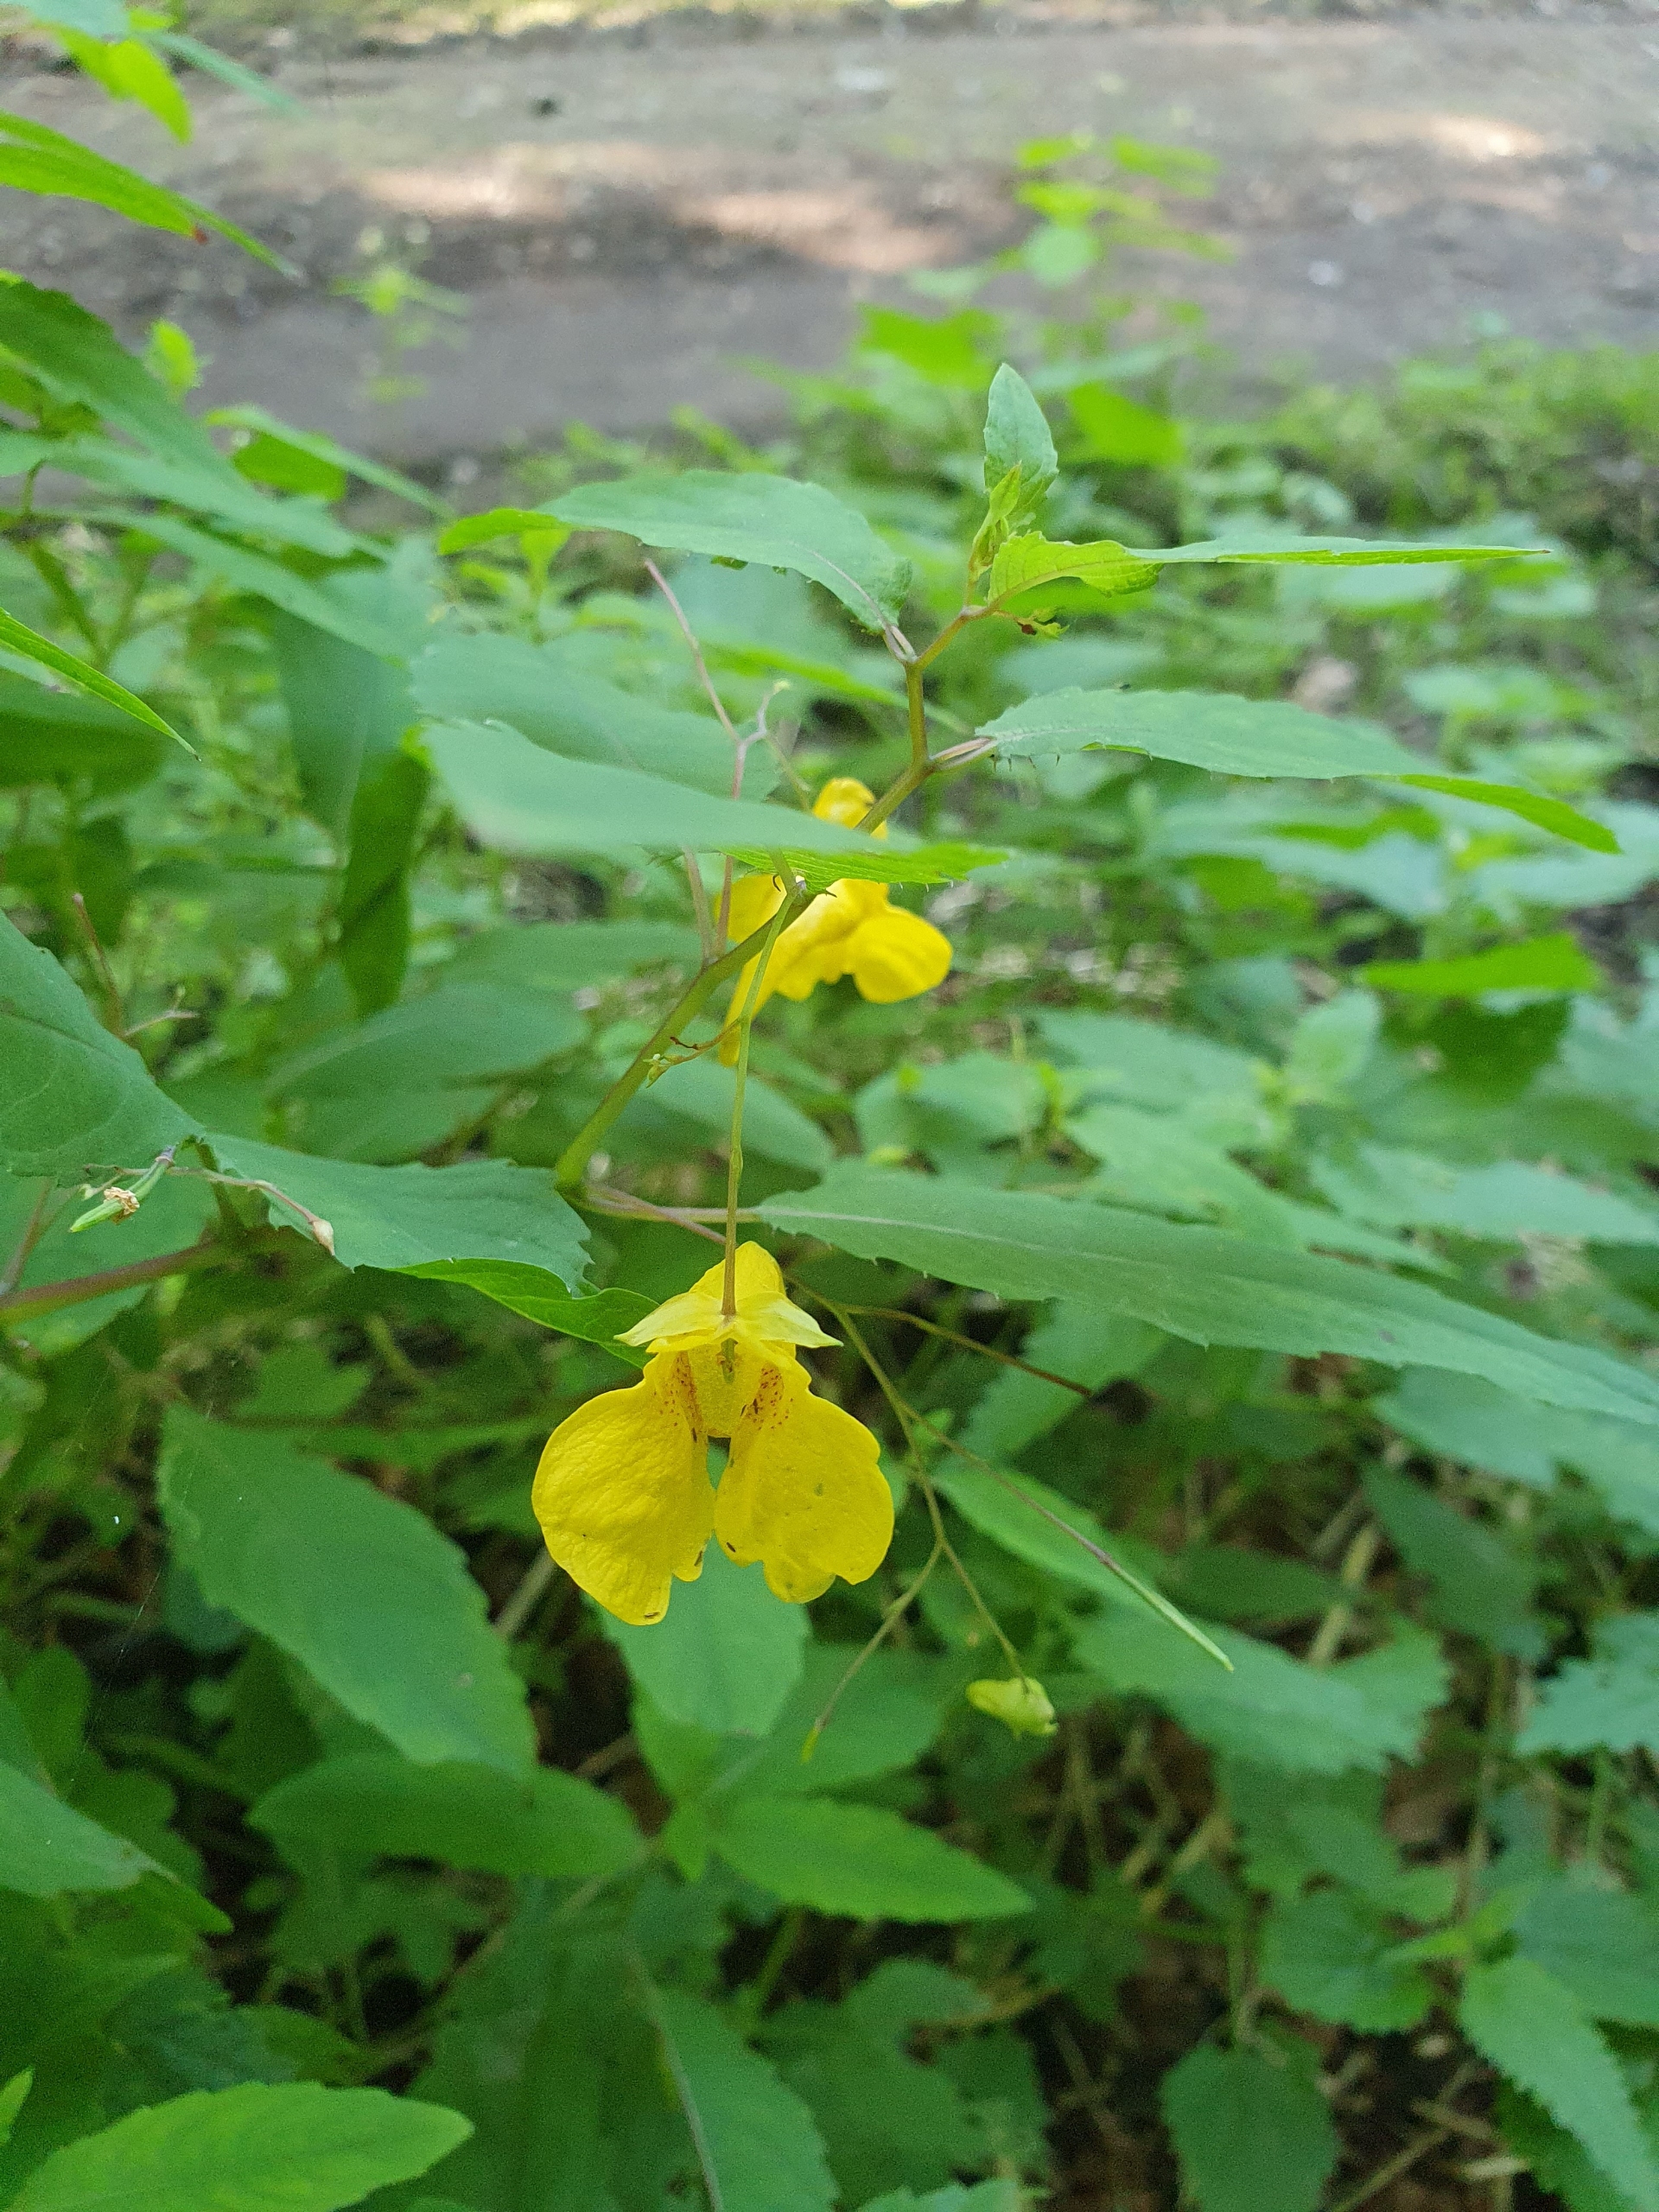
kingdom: Plantae
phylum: Tracheophyta
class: Magnoliopsida
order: Ericales
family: Balsaminaceae
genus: Impatiens
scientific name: Impatiens noli-tangere
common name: Spring-balsamin
